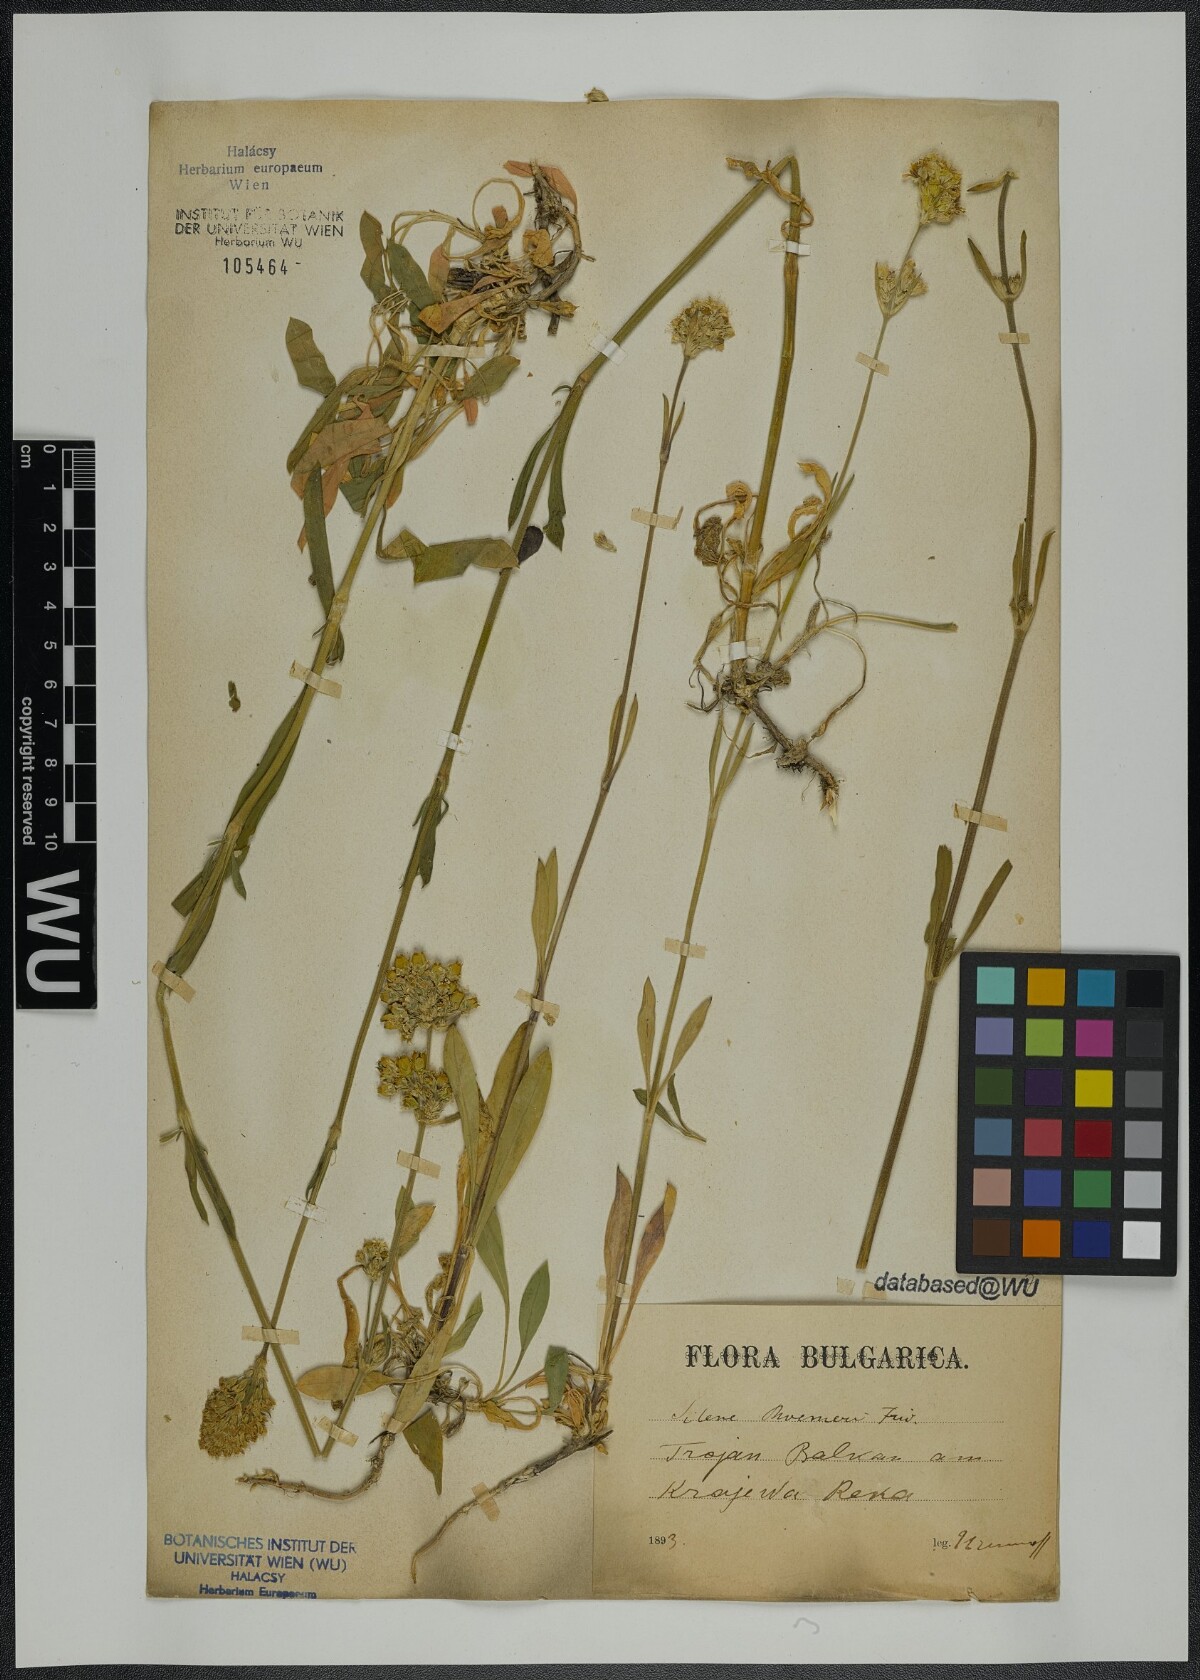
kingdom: Plantae
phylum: Tracheophyta
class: Magnoliopsida
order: Caryophyllales
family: Caryophyllaceae
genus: Silene
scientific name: Silene roemeri
